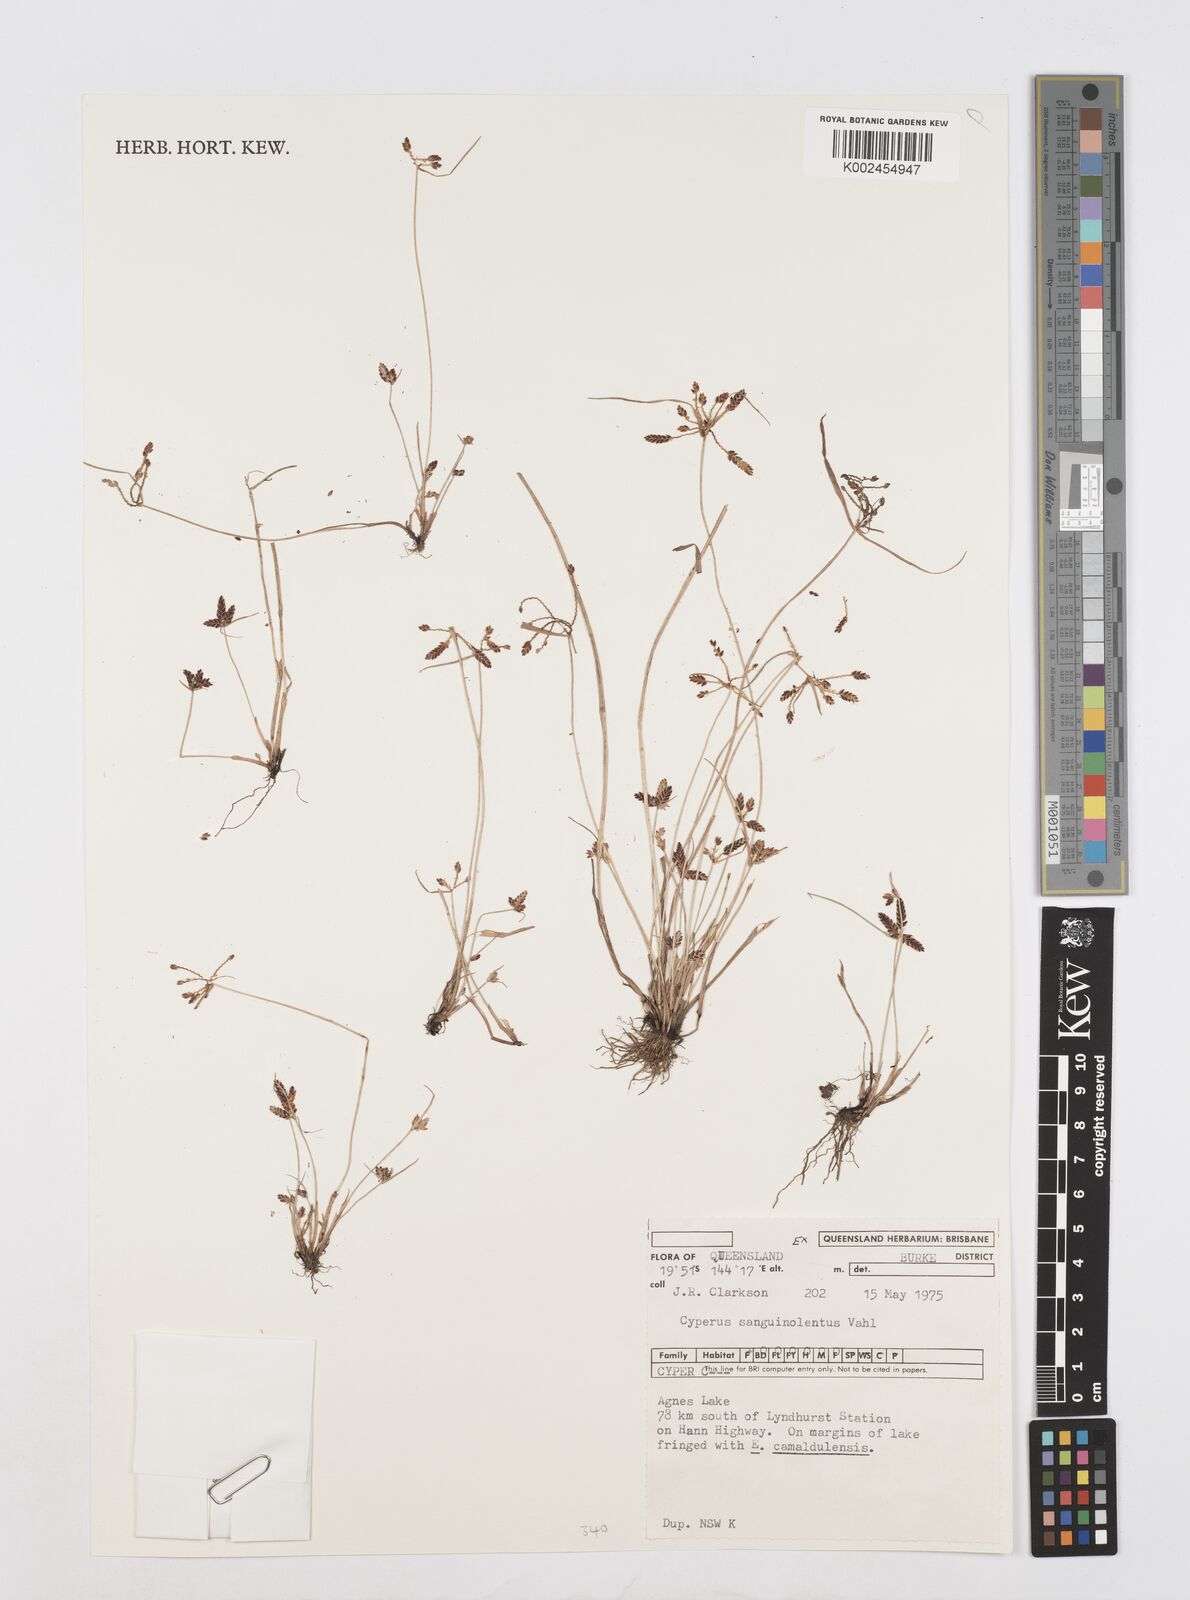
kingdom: Plantae
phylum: Tracheophyta
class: Liliopsida
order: Poales
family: Cyperaceae
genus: Cyperus
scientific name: Cyperus sanguinolentus
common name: Purpleglume flatsedge
